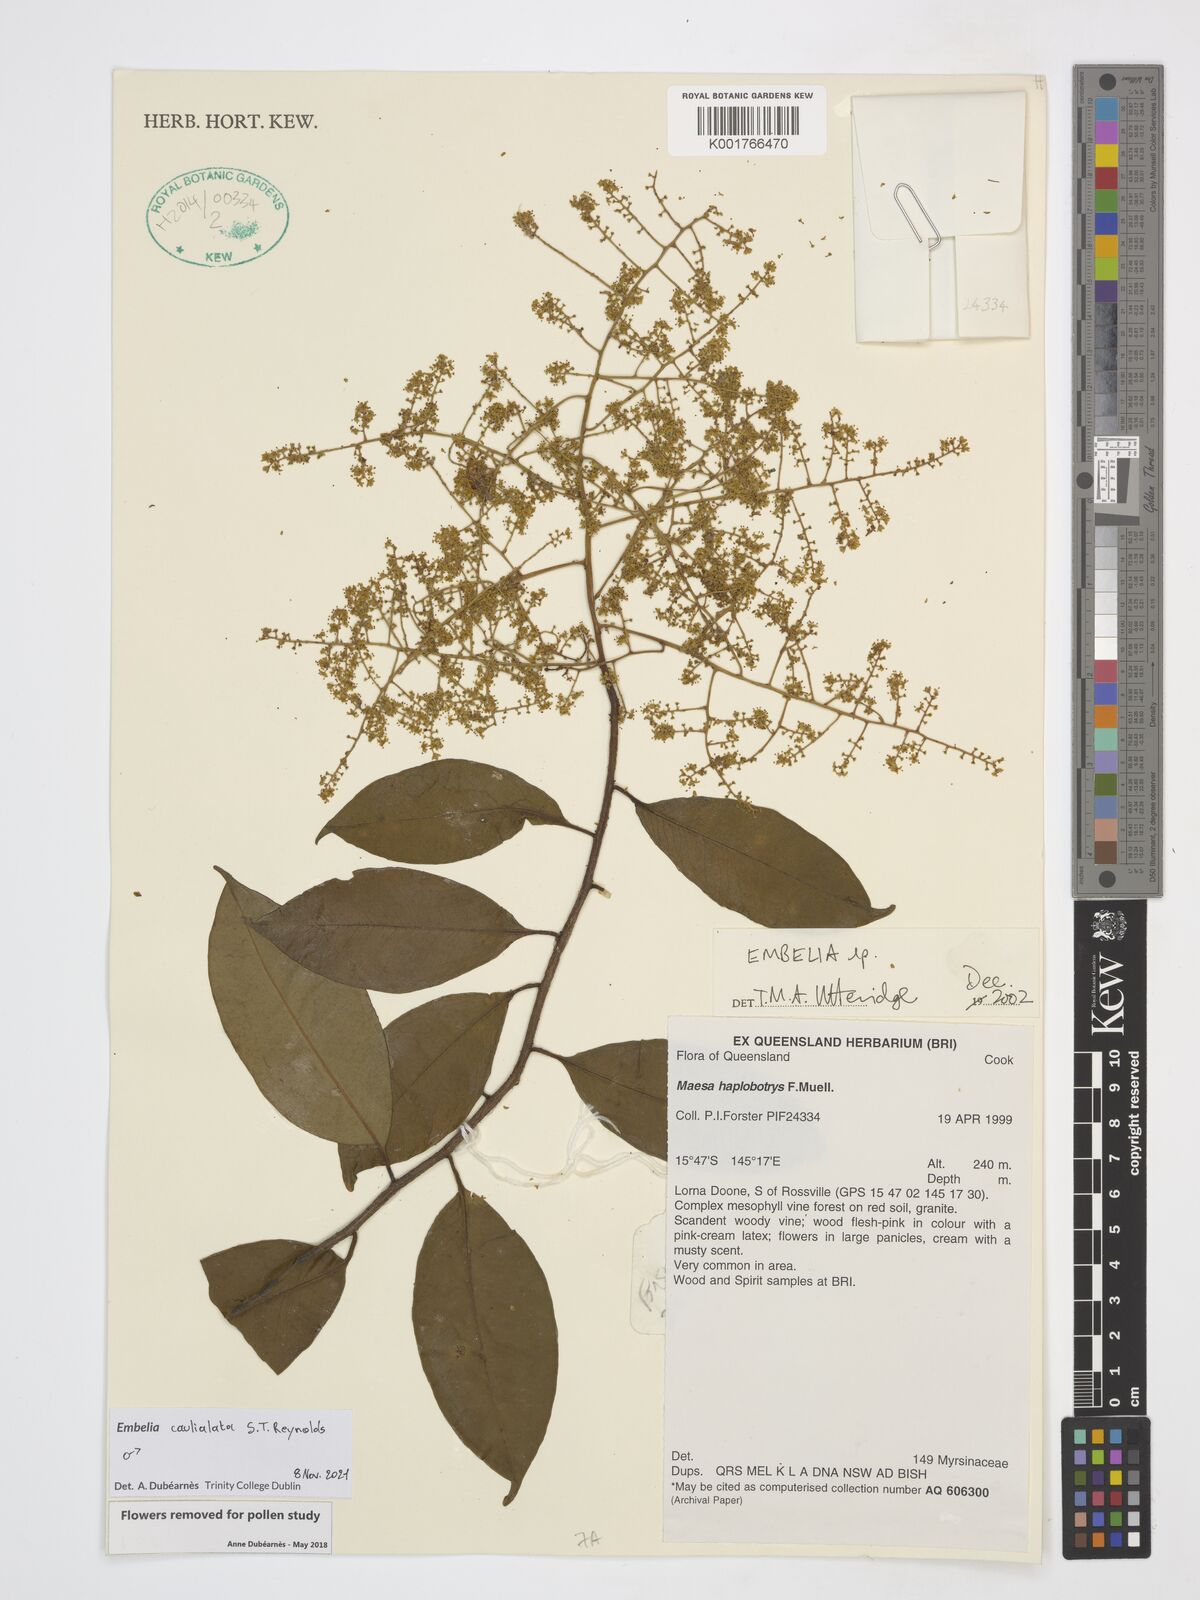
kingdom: Plantae
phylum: Tracheophyta
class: Magnoliopsida
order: Ericales
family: Primulaceae
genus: Embelia
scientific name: Embelia caulialata
